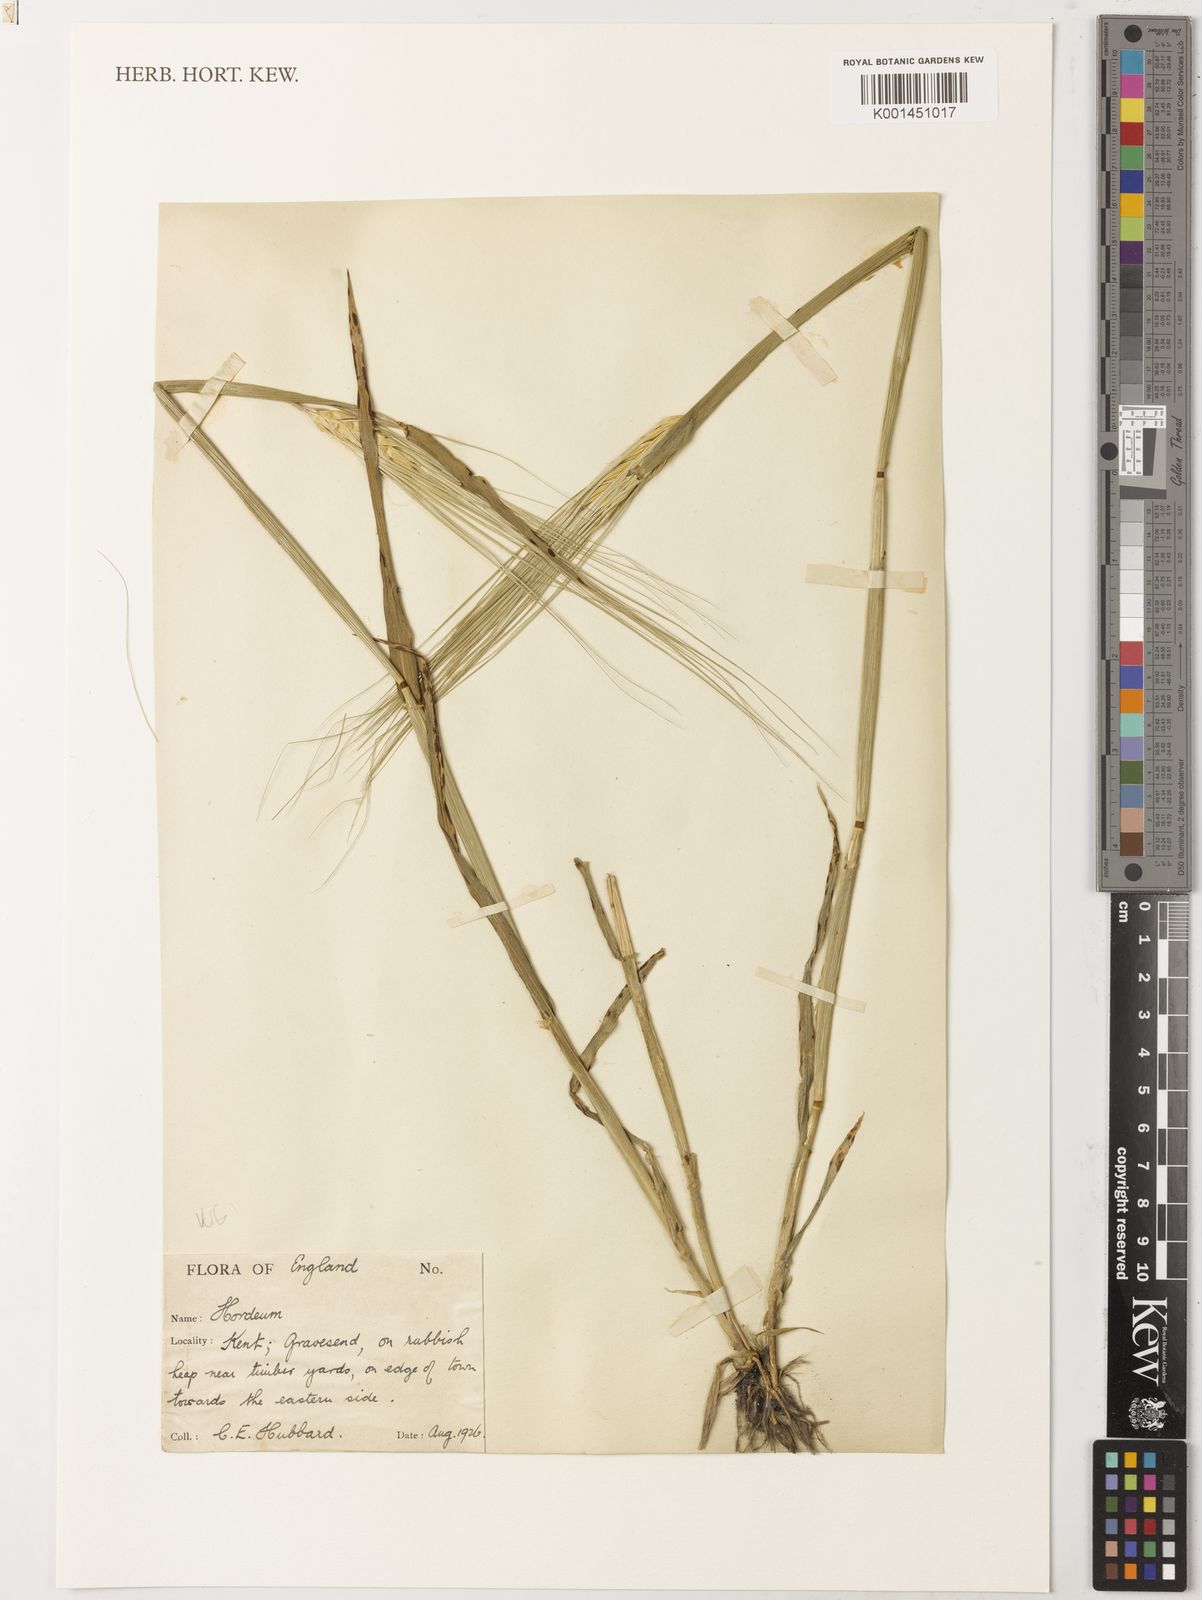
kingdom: Plantae
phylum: Tracheophyta
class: Liliopsida
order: Poales
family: Poaceae
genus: Hordeum
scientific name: Hordeum vulgare
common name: Common barley
